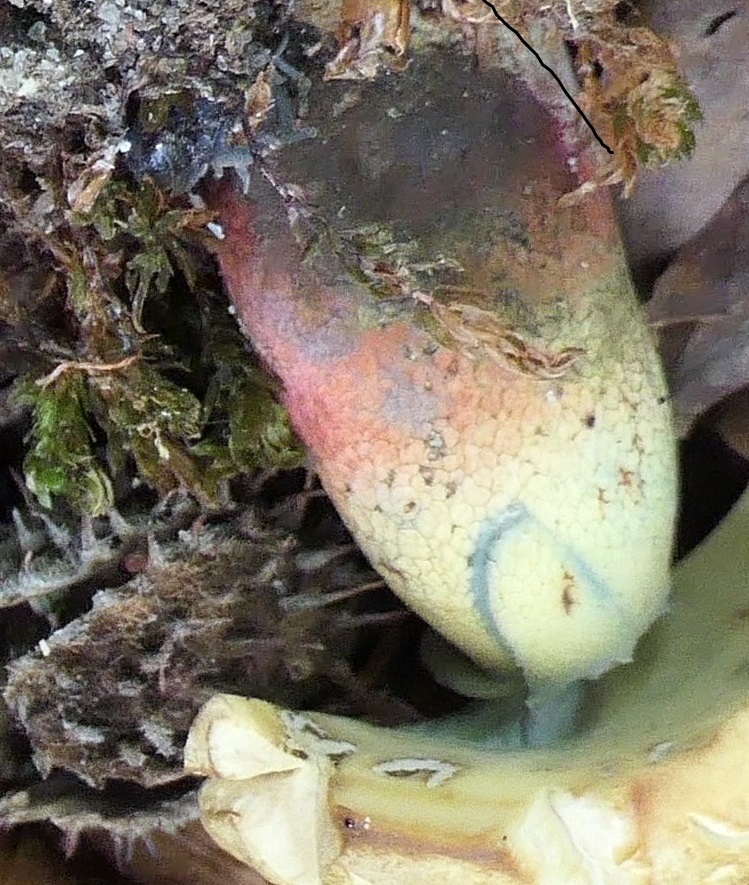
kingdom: Fungi
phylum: Basidiomycota
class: Agaricomycetes
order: Boletales
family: Boletaceae
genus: Caloboletus
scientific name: Caloboletus calopus
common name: skønfodet rørhat
